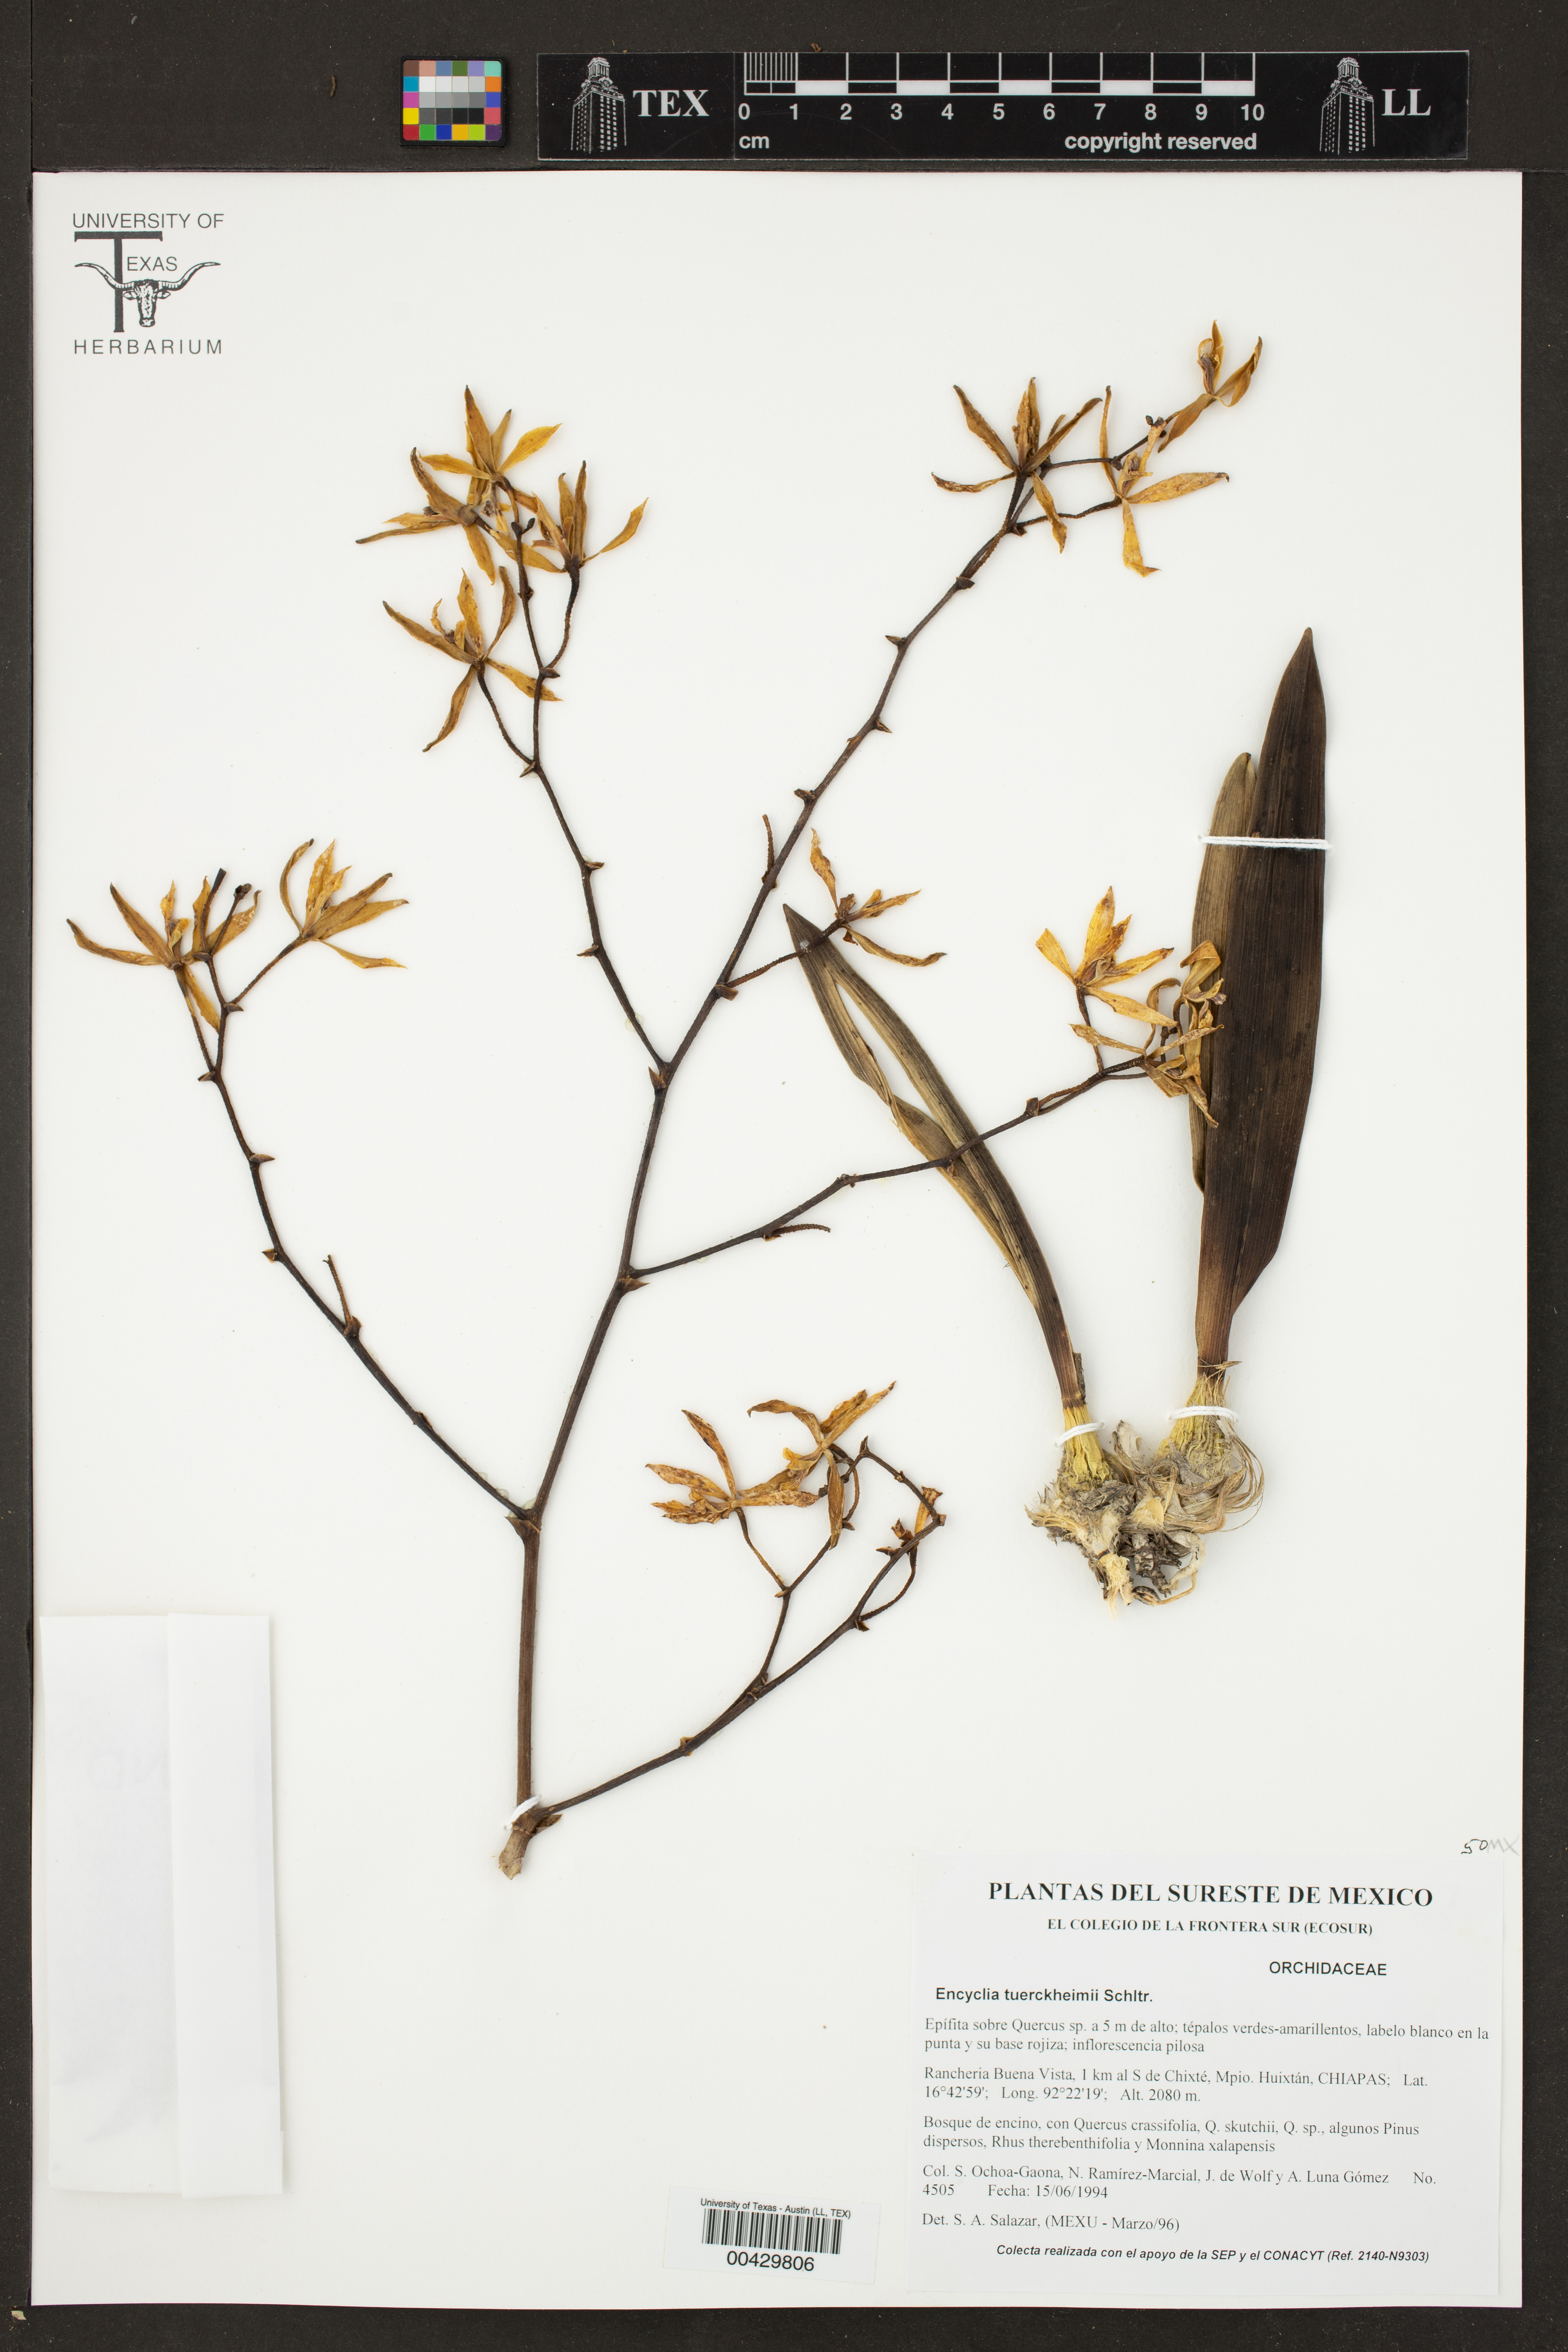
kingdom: Plantae
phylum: Tracheophyta
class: Liliopsida
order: Asparagales
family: Orchidaceae
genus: Encyclia
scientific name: Encyclia tuerckheimii
